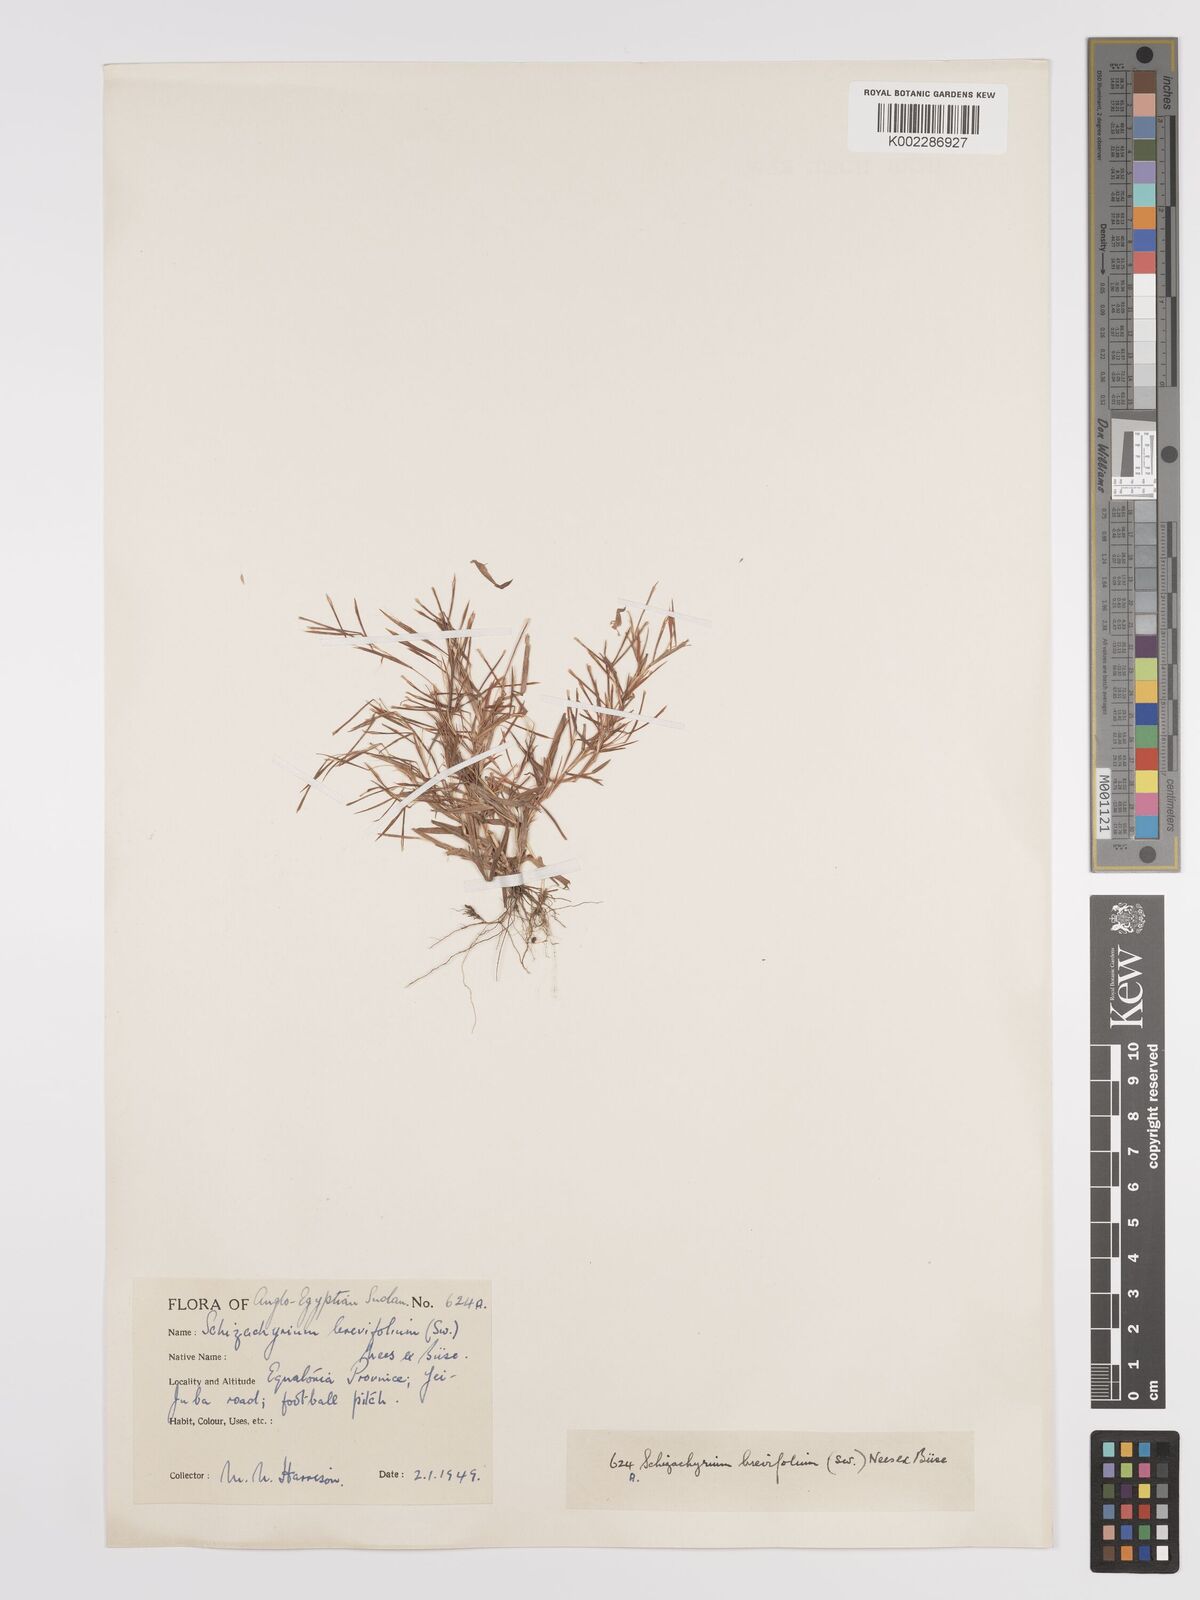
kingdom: Plantae
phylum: Tracheophyta
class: Liliopsida
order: Poales
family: Poaceae
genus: Schizachyrium
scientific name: Schizachyrium brevifolium
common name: Serillo dulce
